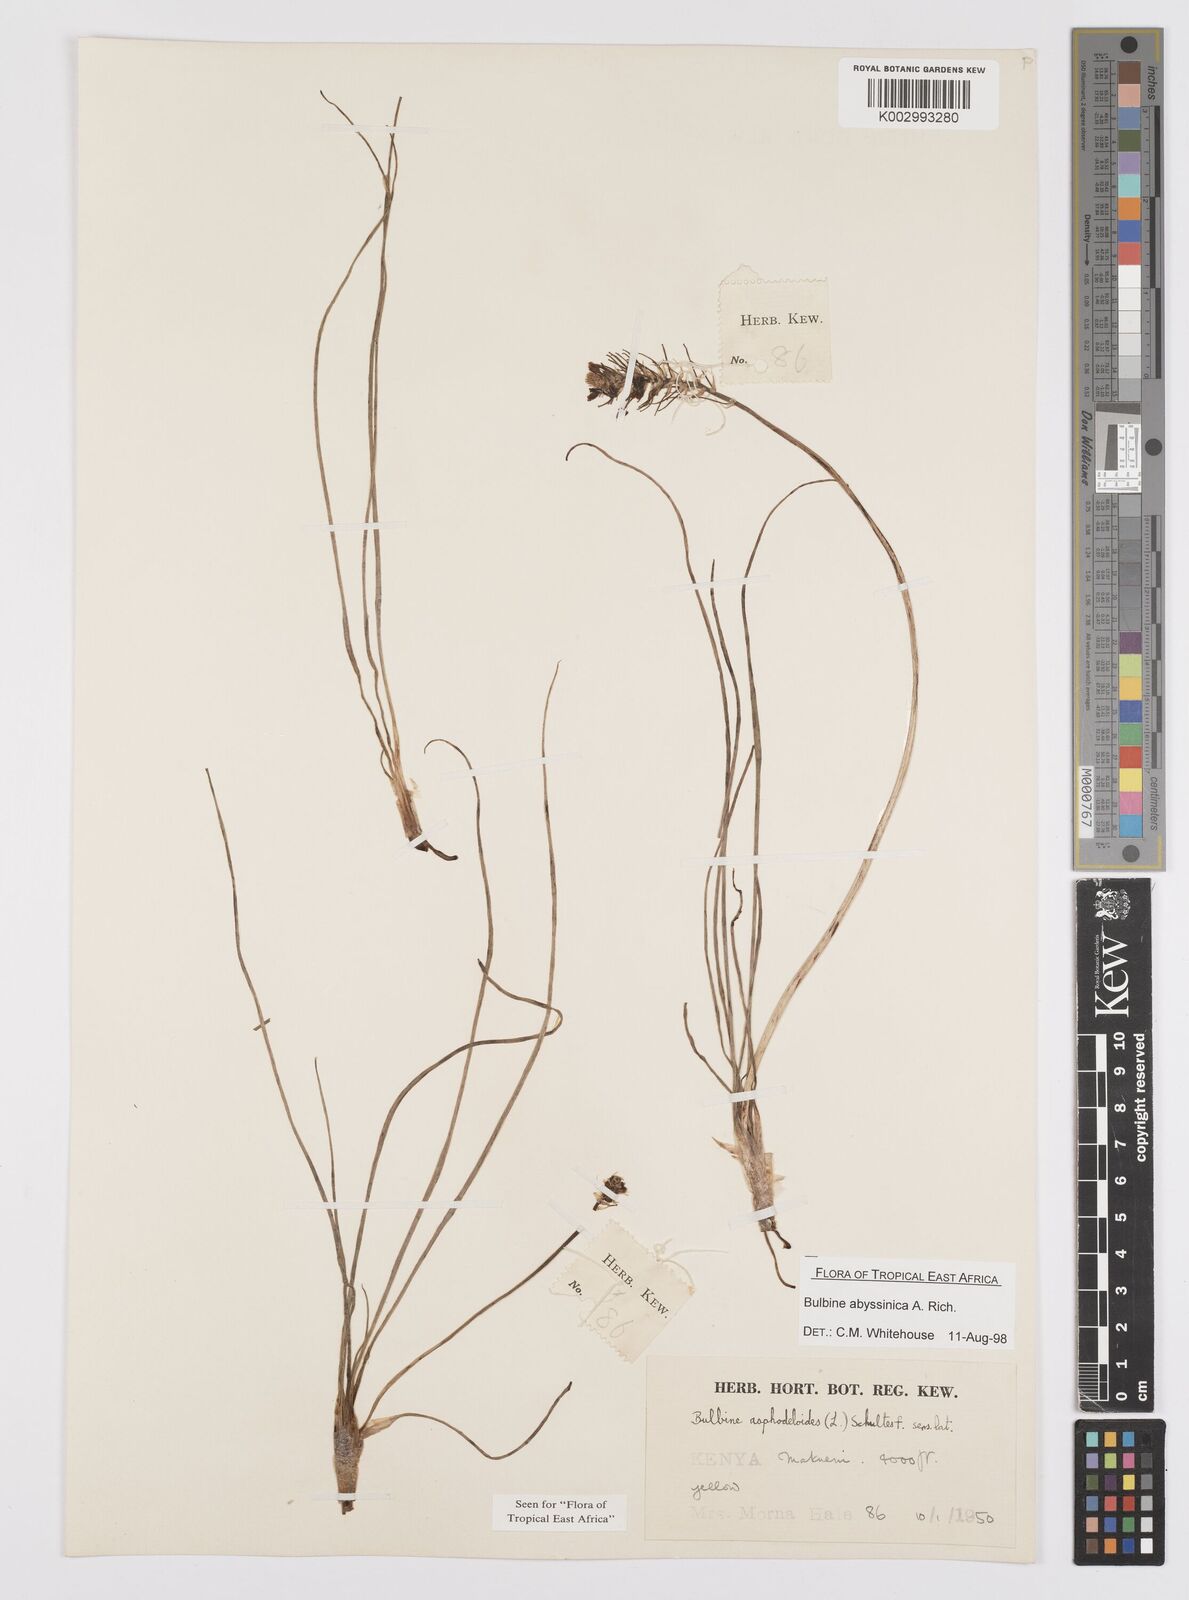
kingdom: Plantae
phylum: Tracheophyta
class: Liliopsida
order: Asparagales
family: Asphodelaceae
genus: Bulbine
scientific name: Bulbine abyssinica
